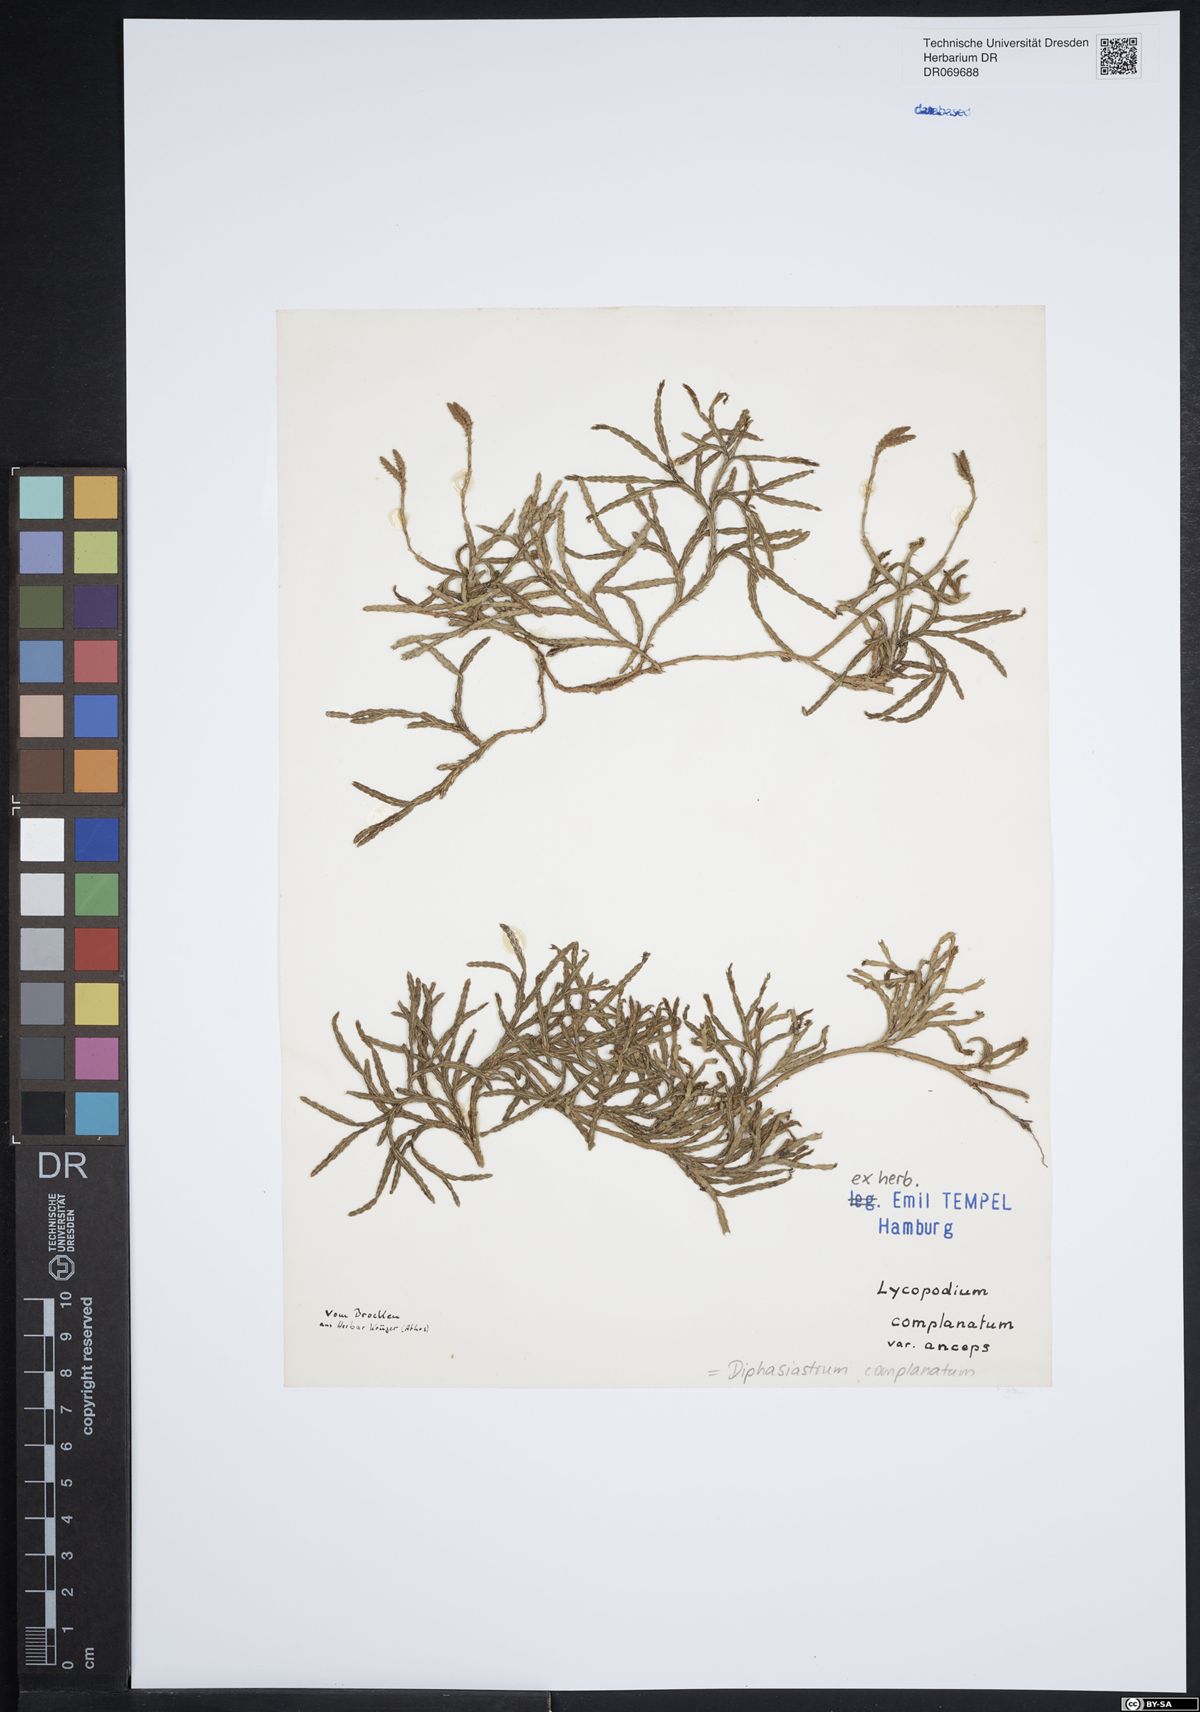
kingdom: Plantae
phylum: Tracheophyta
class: Lycopodiopsida
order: Lycopodiales
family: Lycopodiaceae
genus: Diphasiastrum
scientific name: Diphasiastrum complanatum
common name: Northern running-pine
